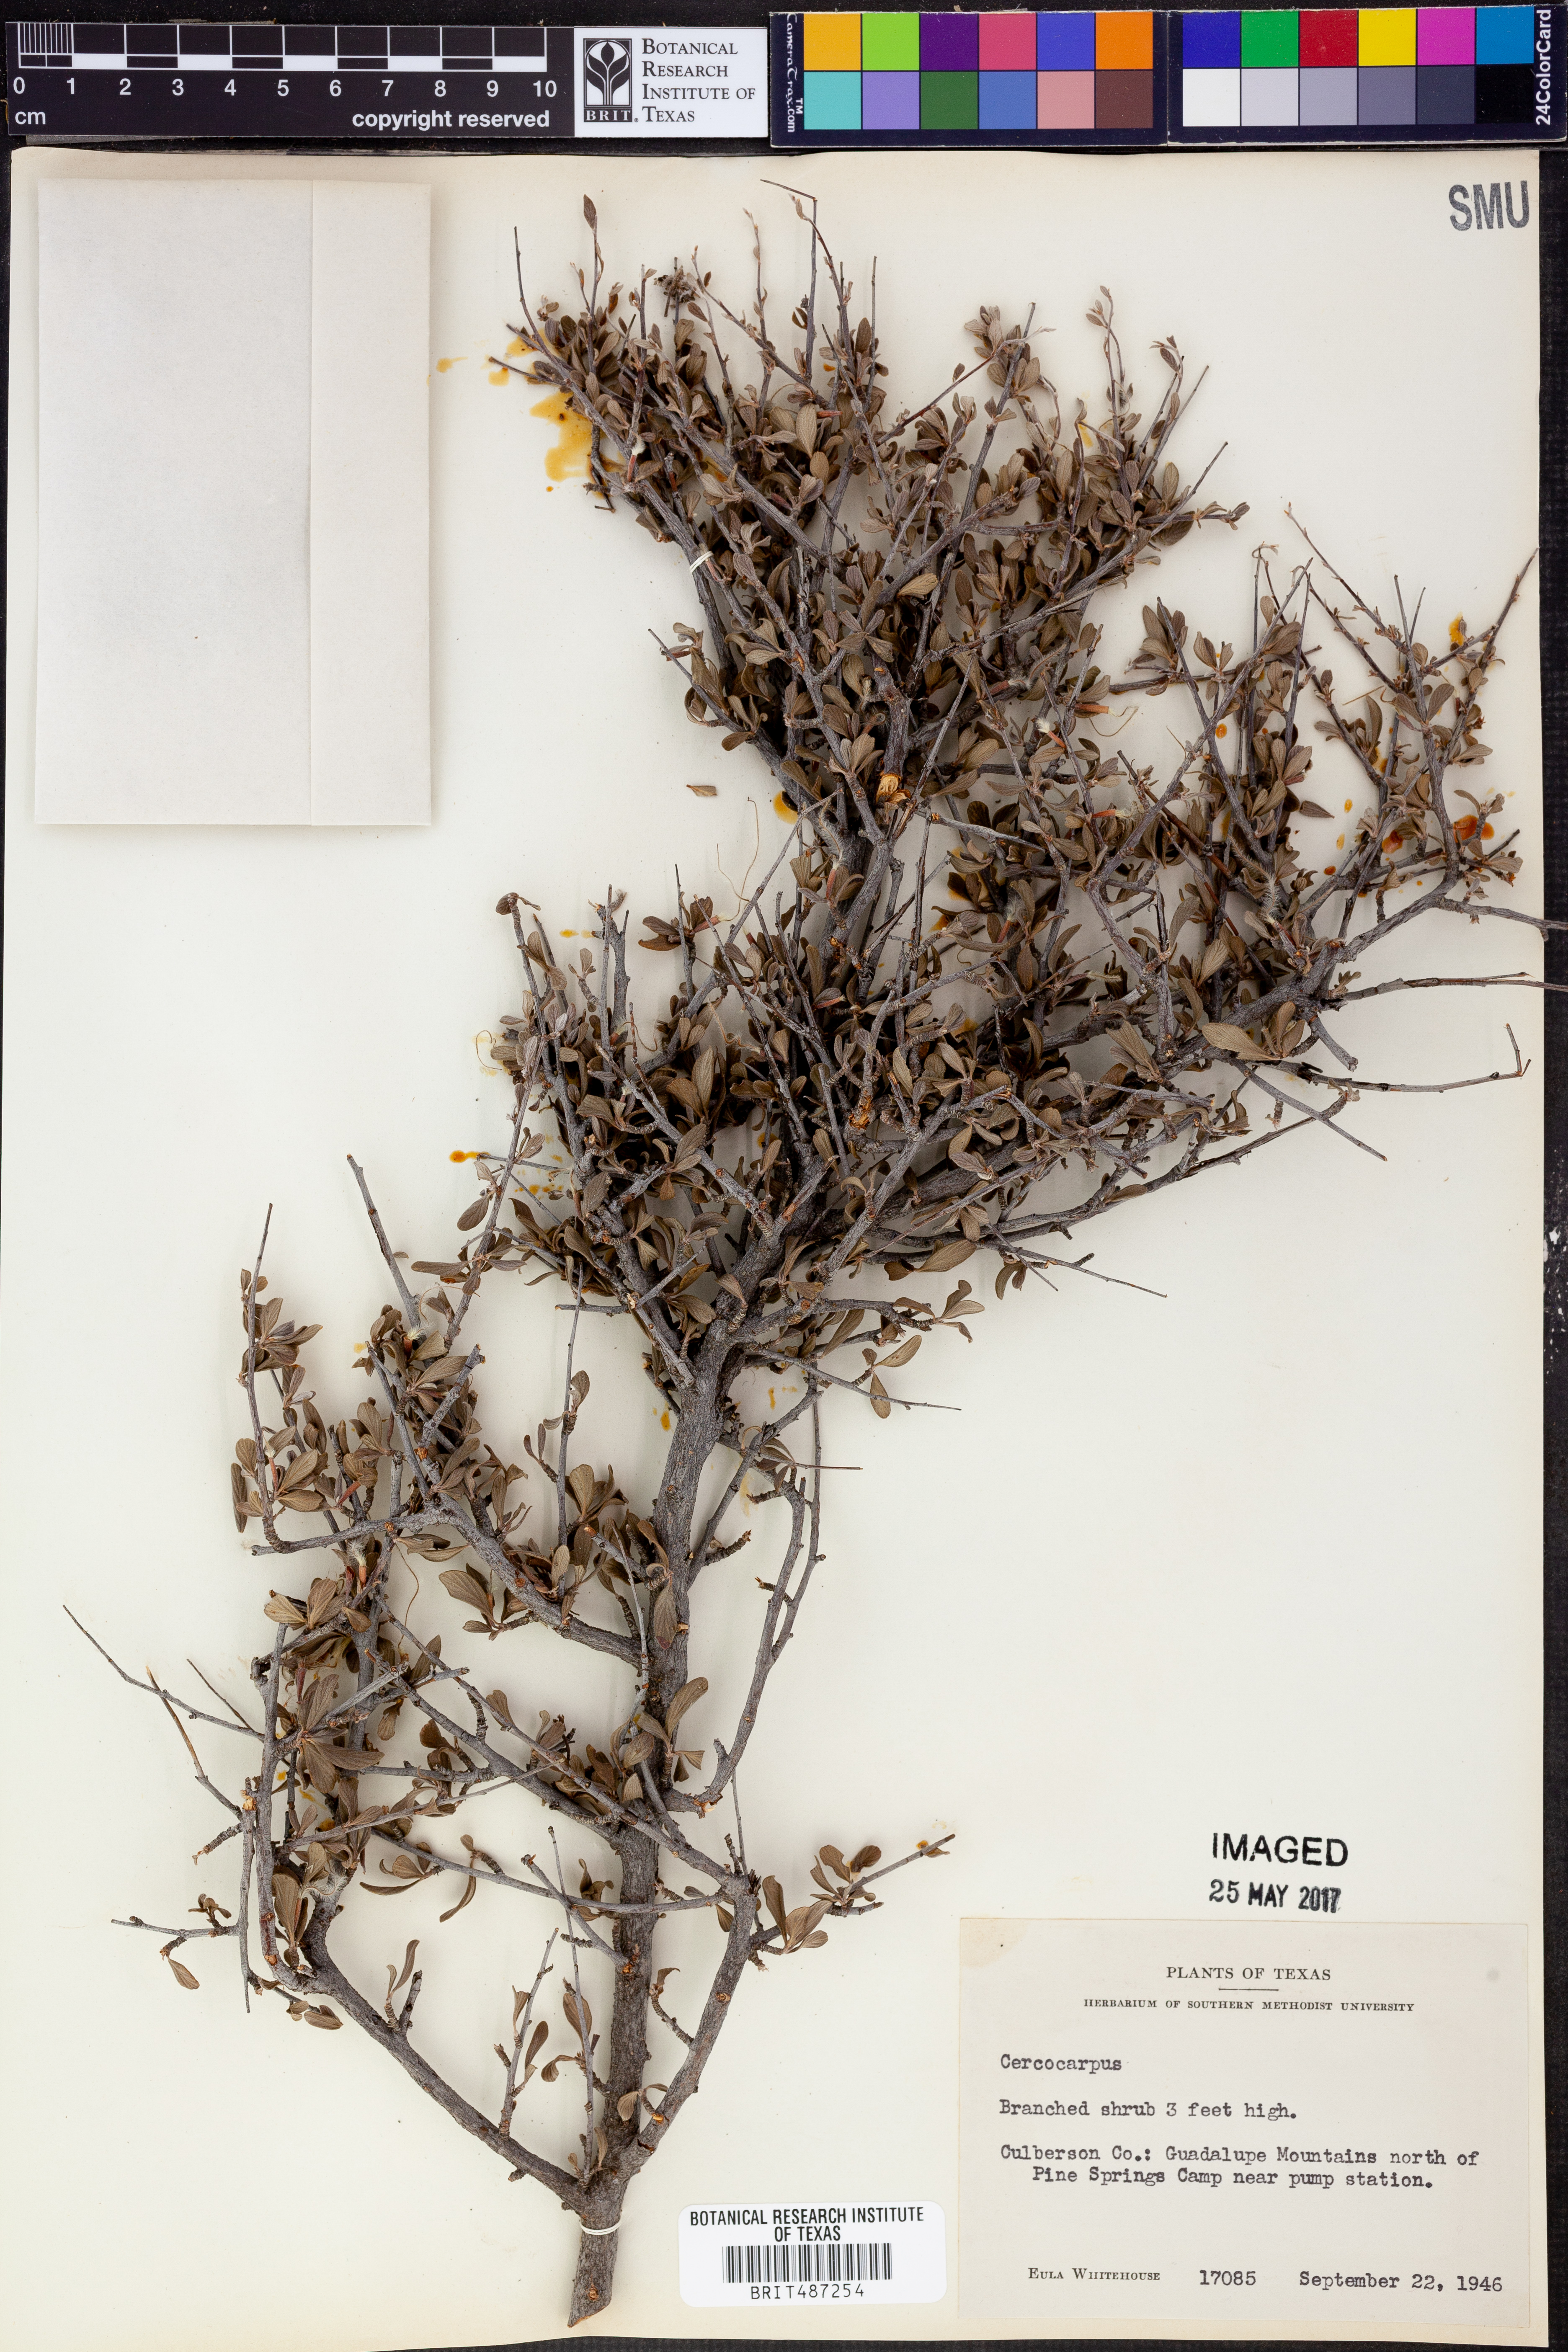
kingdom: Plantae
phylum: Tracheophyta
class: Magnoliopsida
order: Rosales
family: Rosaceae
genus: Cercocarpus
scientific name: Cercocarpus
